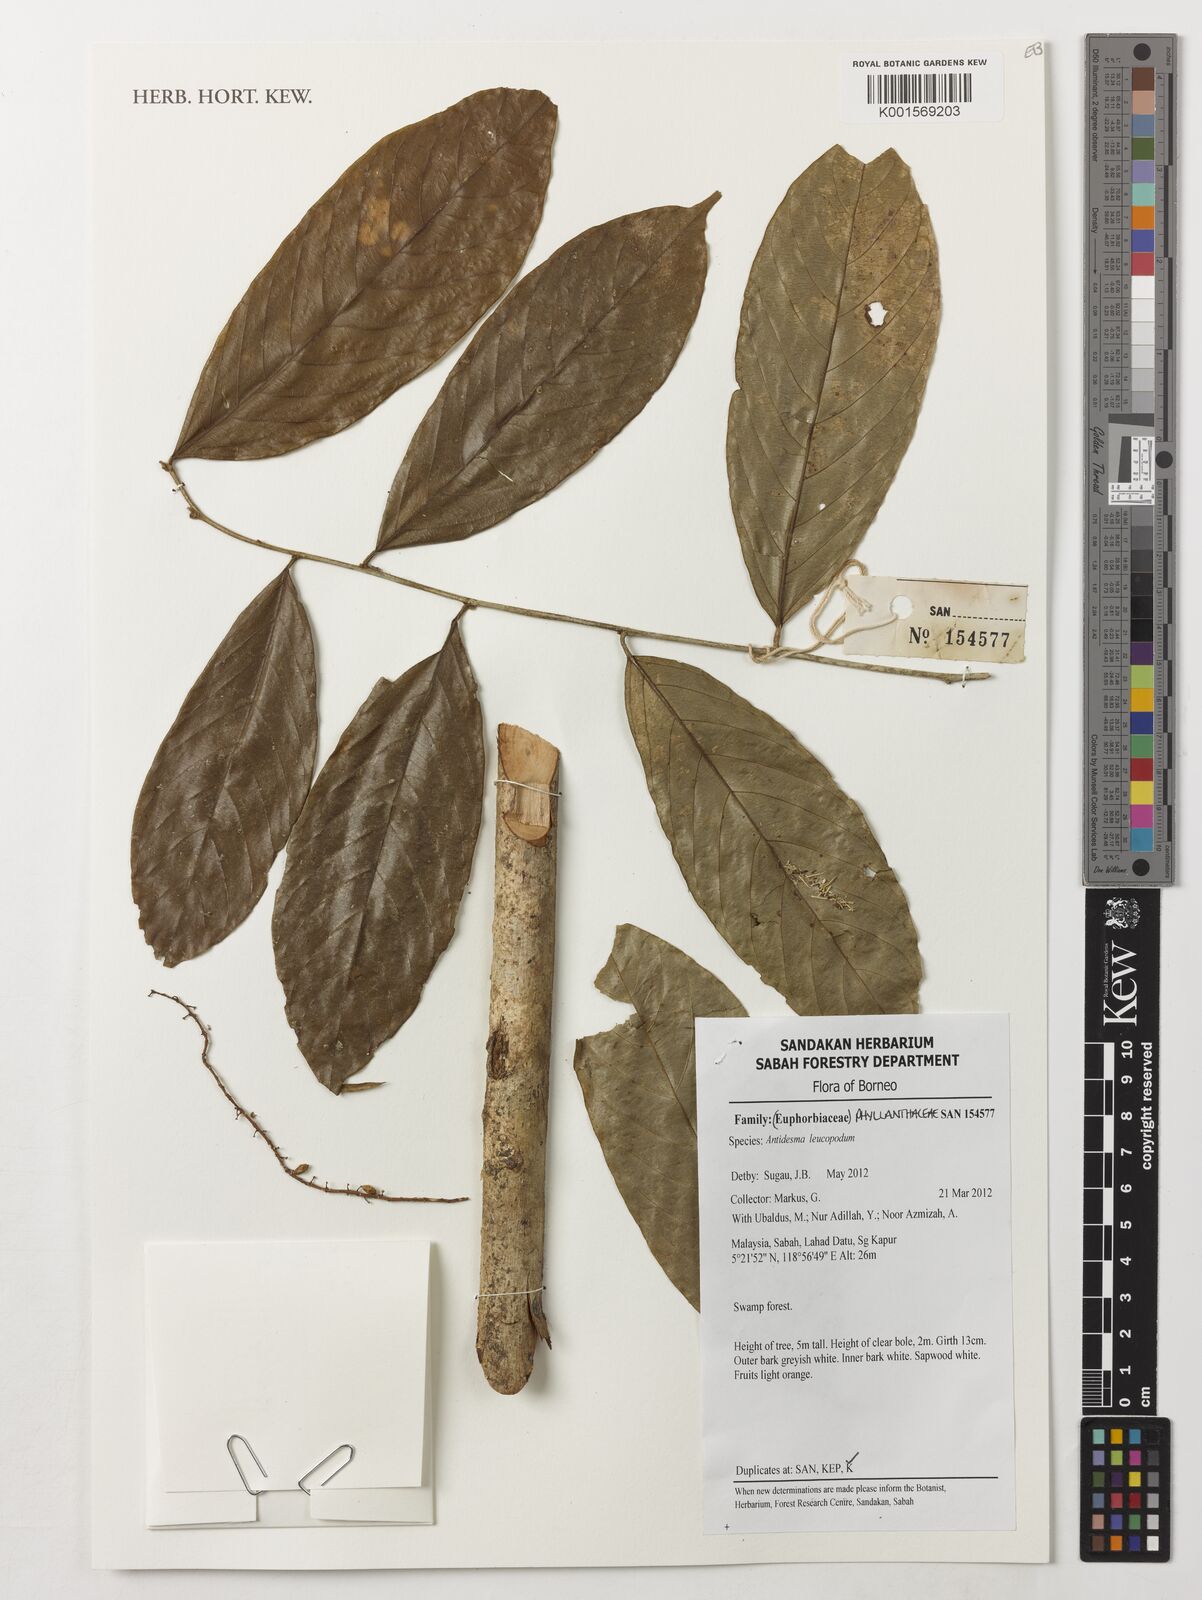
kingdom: Plantae
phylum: Tracheophyta
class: Magnoliopsida
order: Malpighiales
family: Phyllanthaceae
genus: Antidesma
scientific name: Antidesma leucopodum
